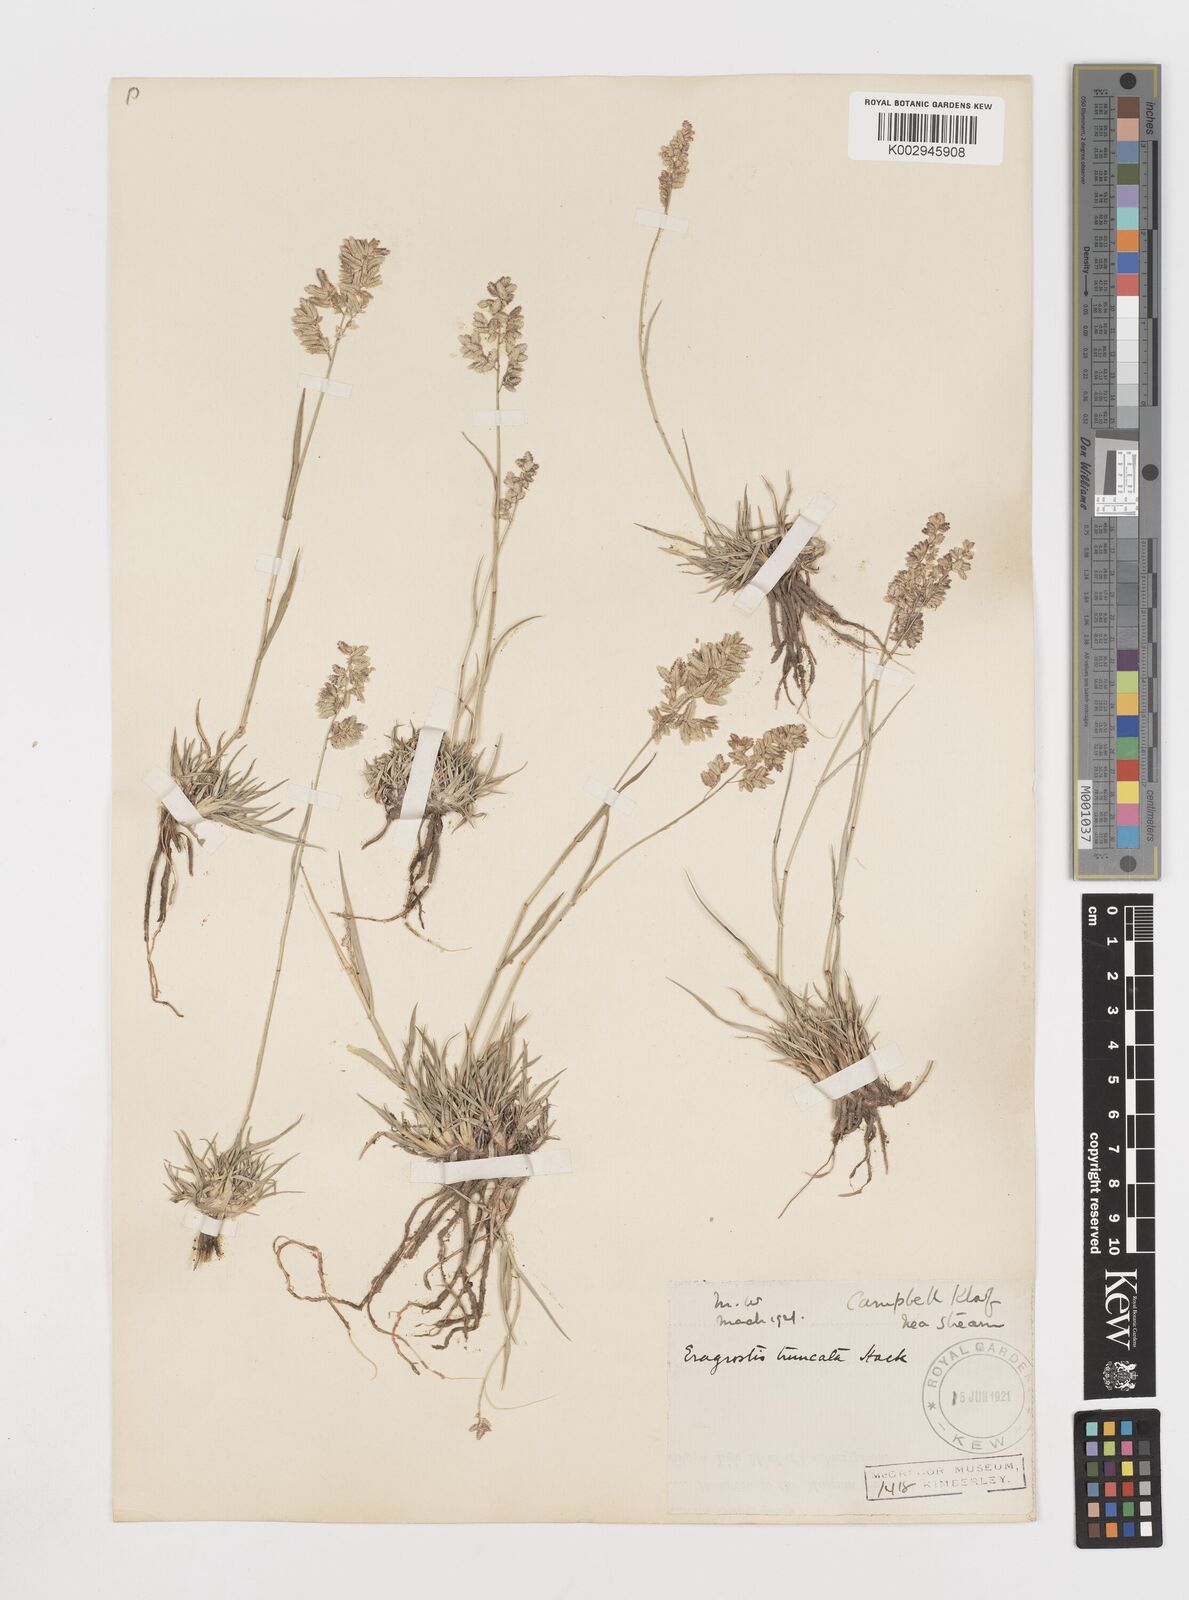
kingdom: Plantae
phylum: Tracheophyta
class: Liliopsida
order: Poales
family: Poaceae
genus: Eragrostis
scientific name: Eragrostis truncata
